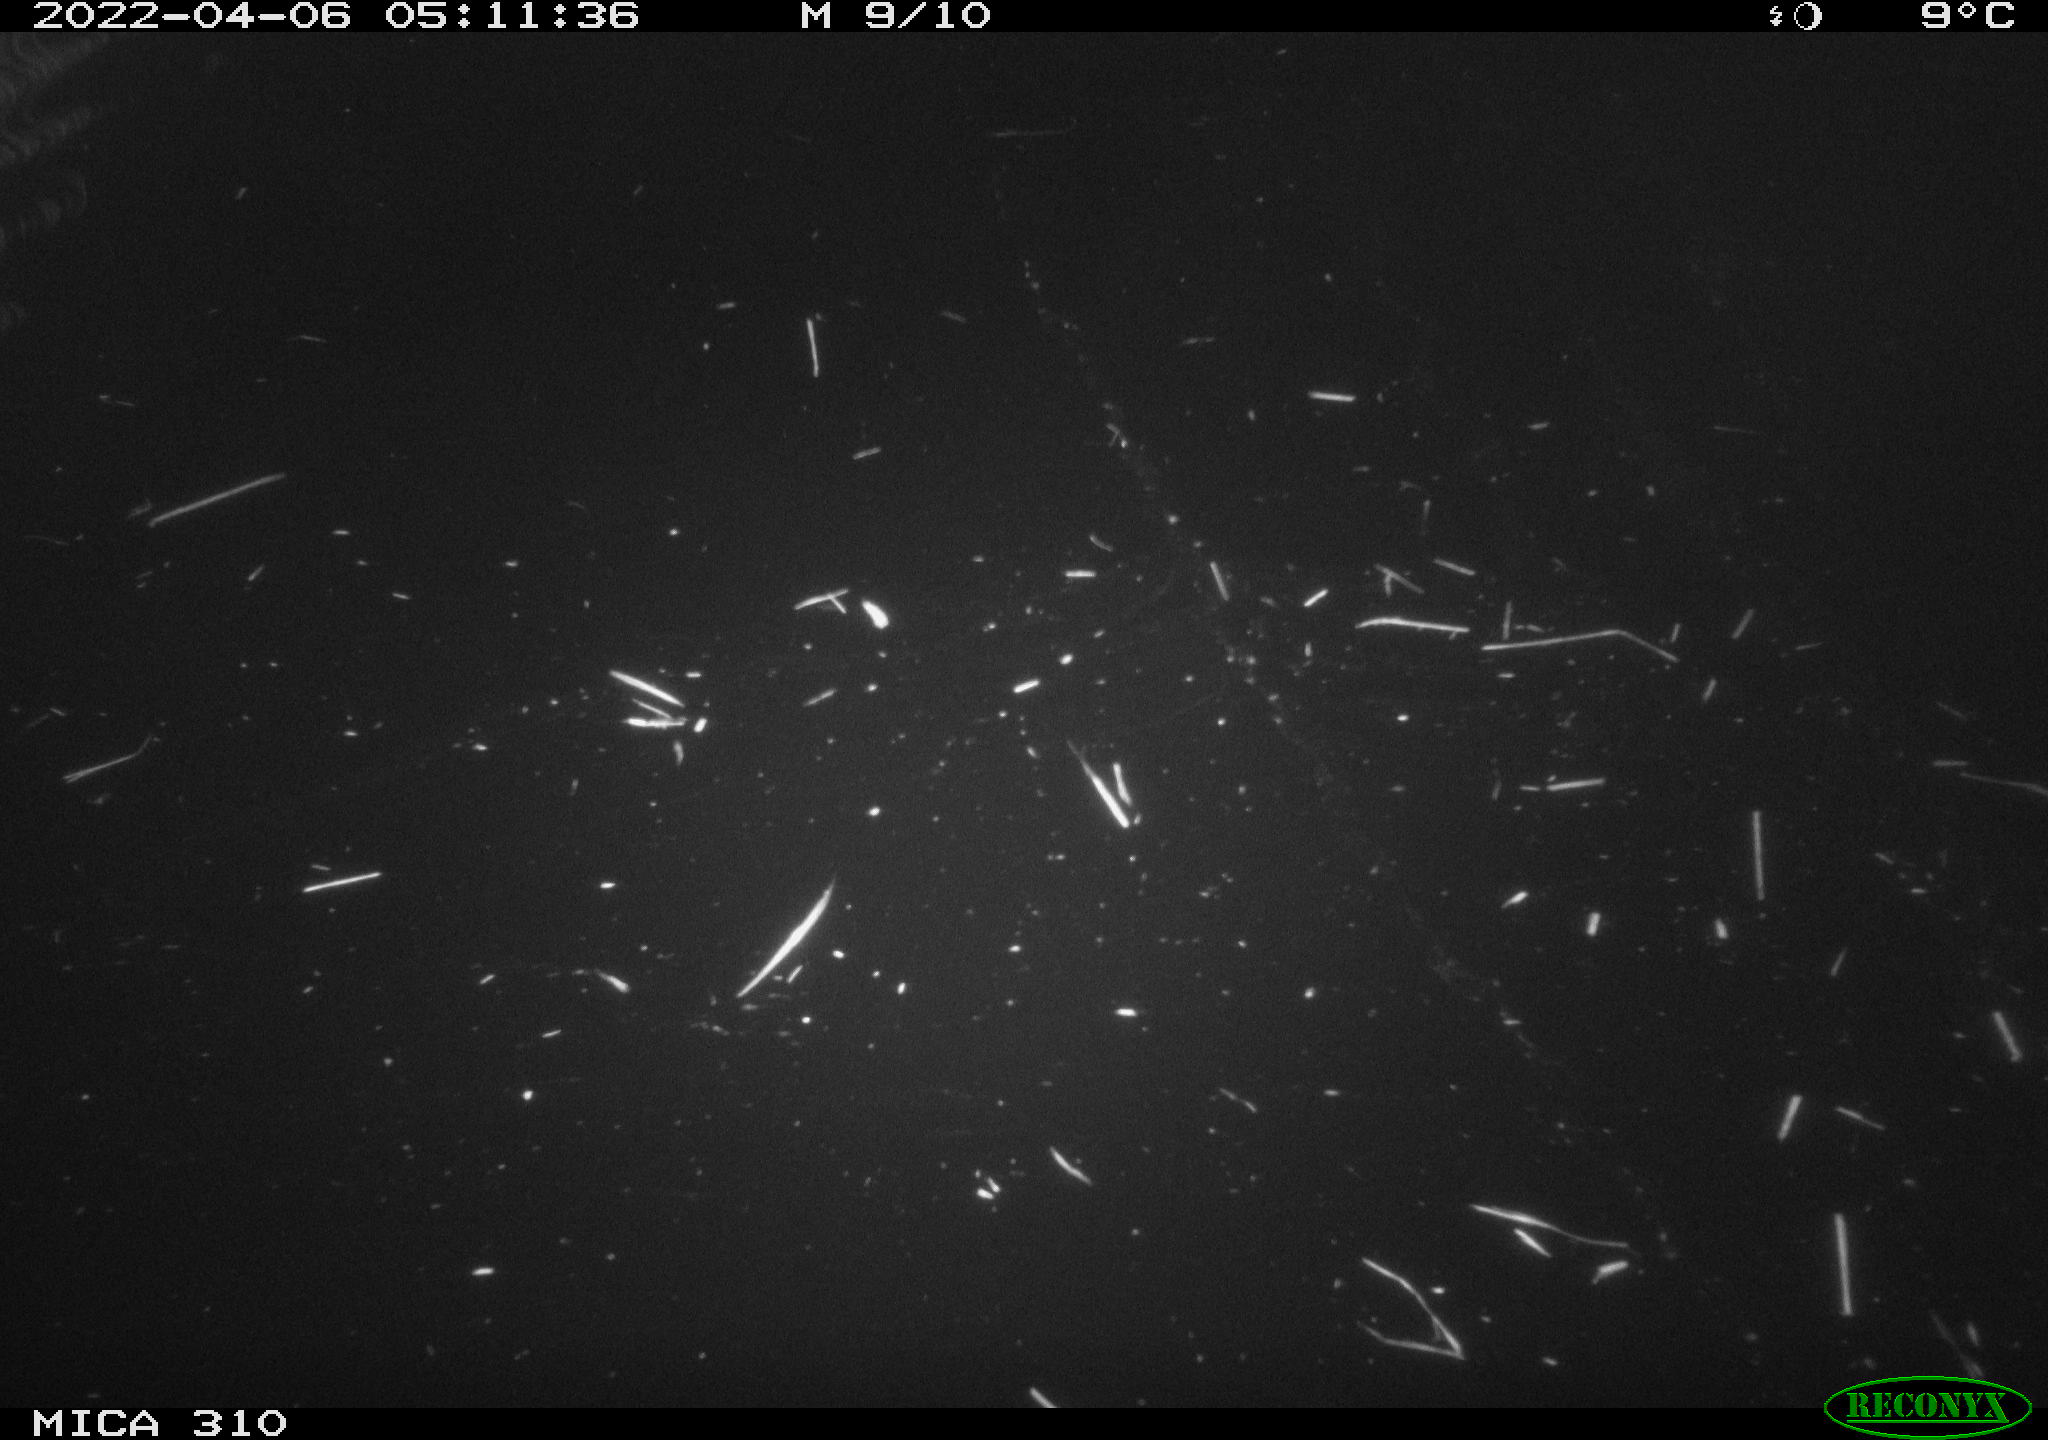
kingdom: Animalia
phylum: Chordata
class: Aves
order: Anseriformes
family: Anatidae
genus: Anas
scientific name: Anas platyrhynchos
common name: Mallard
